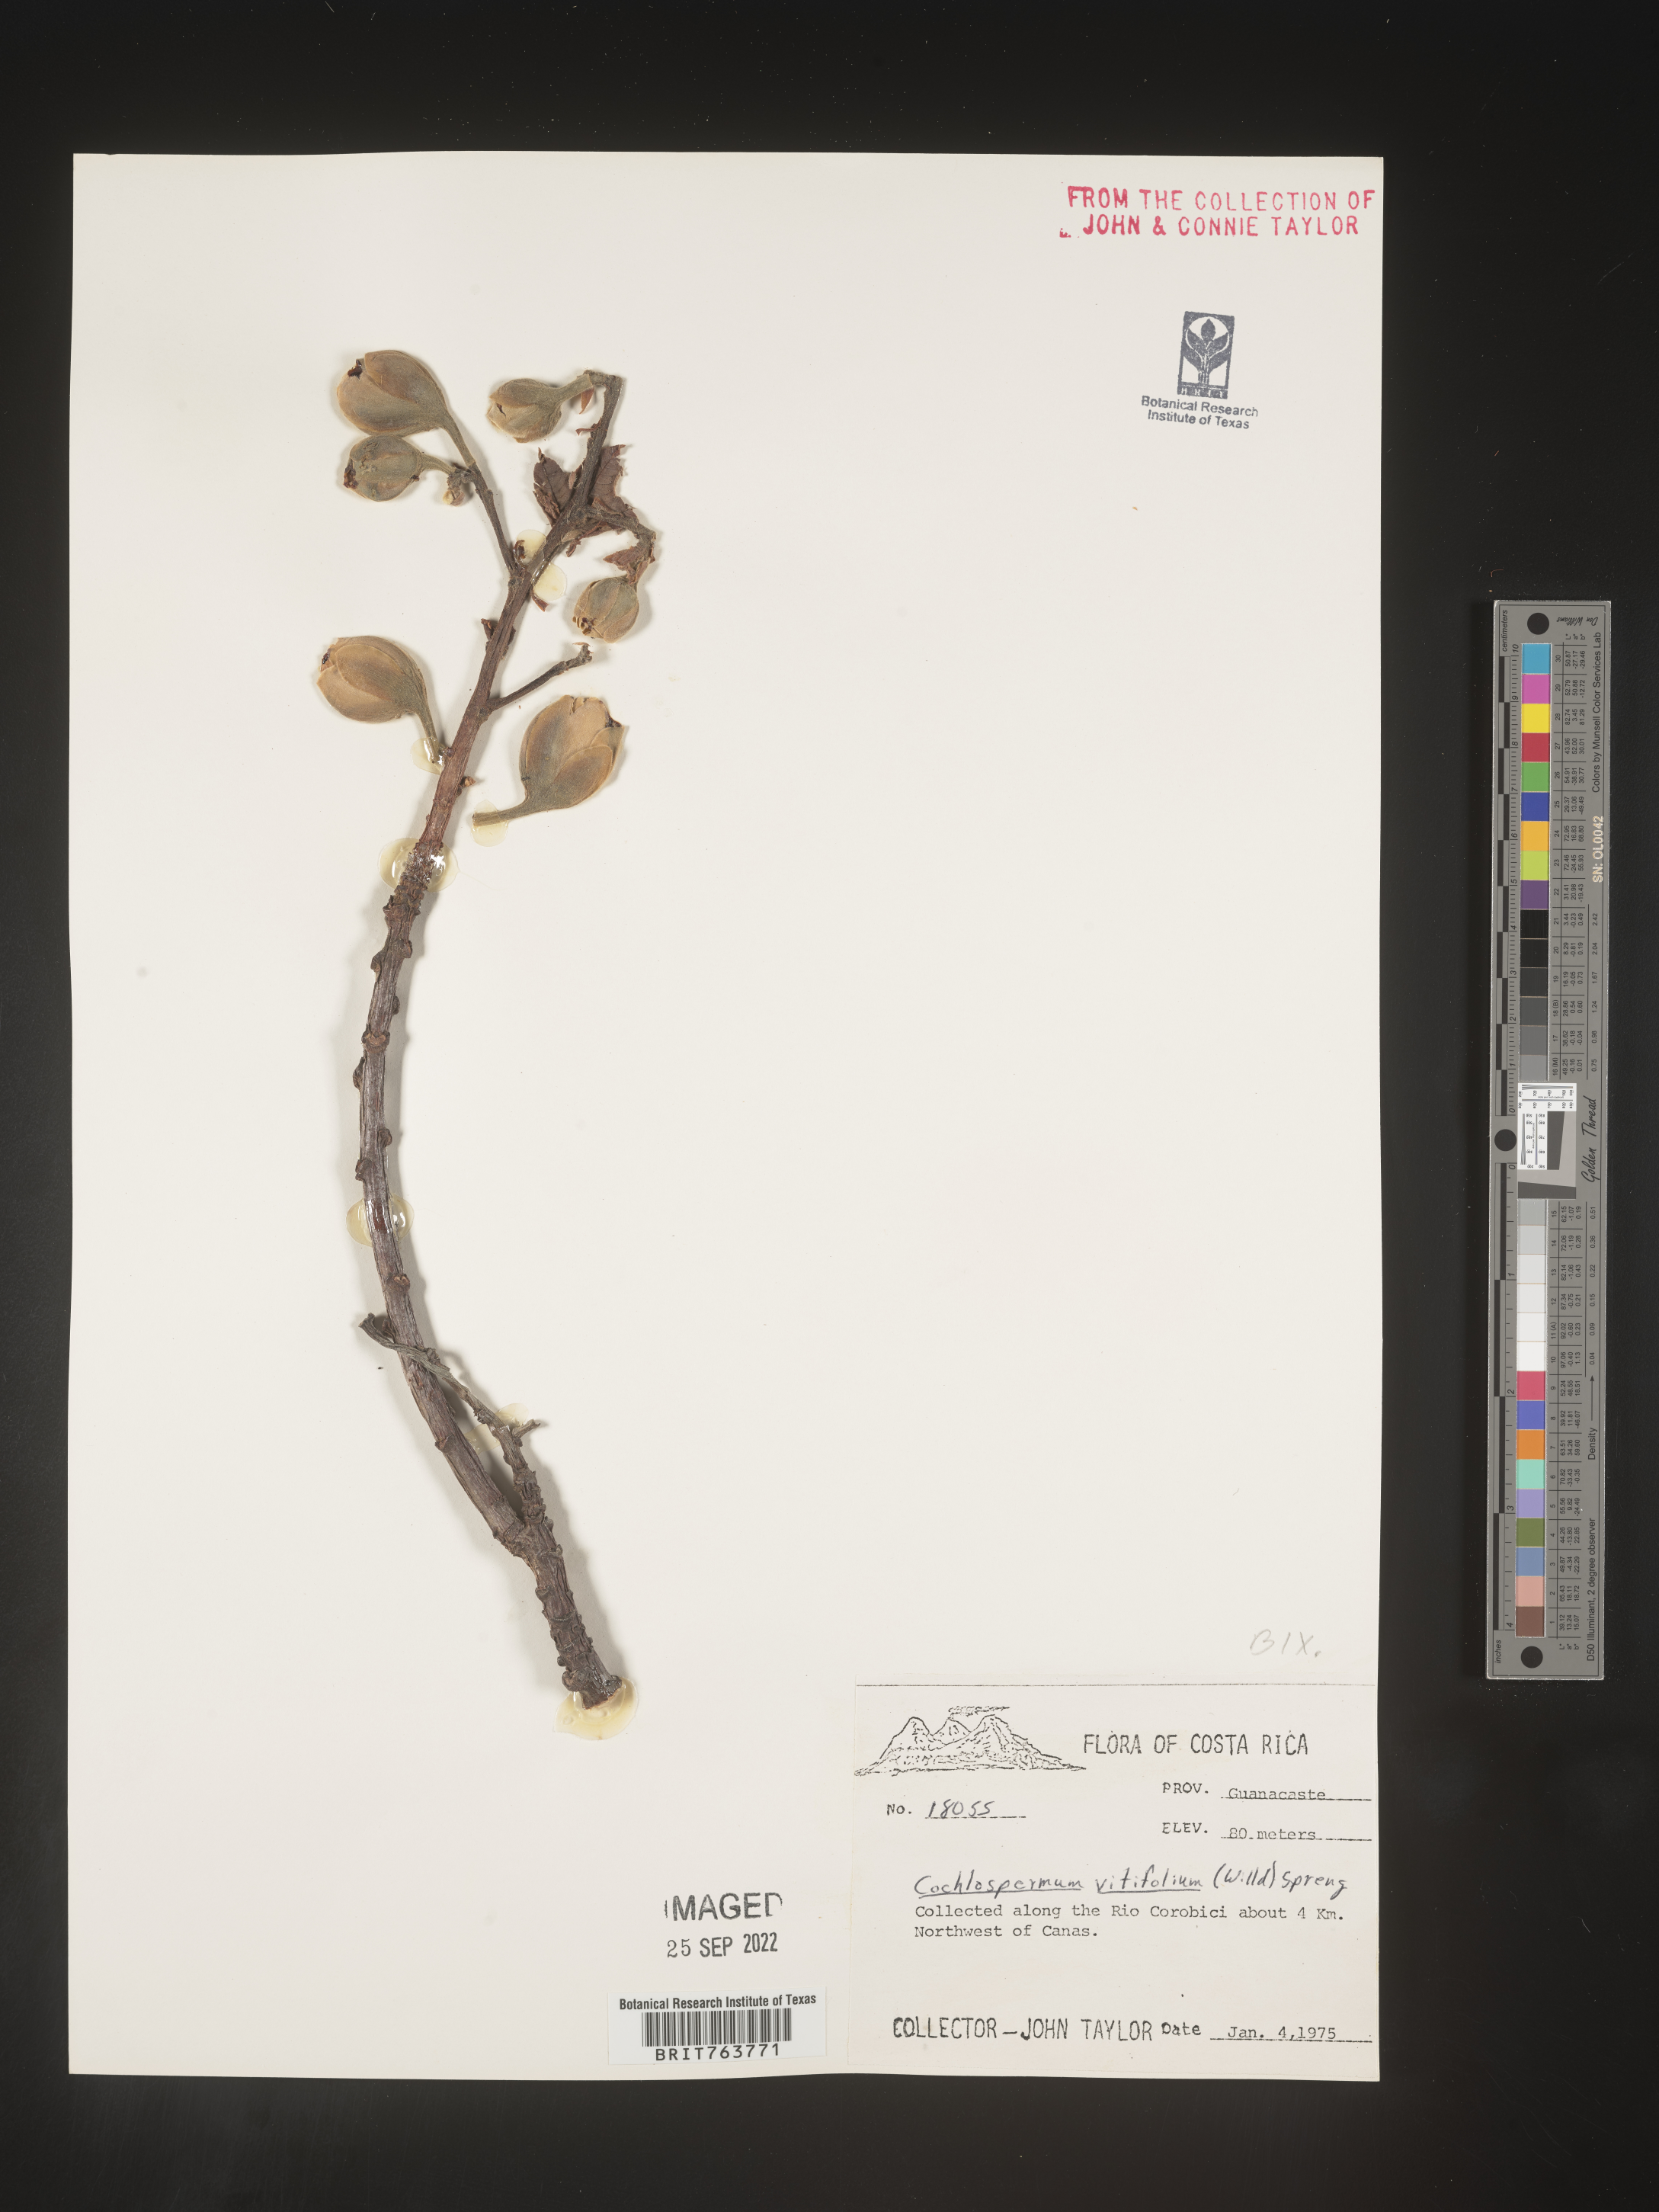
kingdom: Plantae
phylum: Tracheophyta
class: Magnoliopsida
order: Malvales
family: Cochlospermaceae
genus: Cochlospermum
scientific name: Cochlospermum
